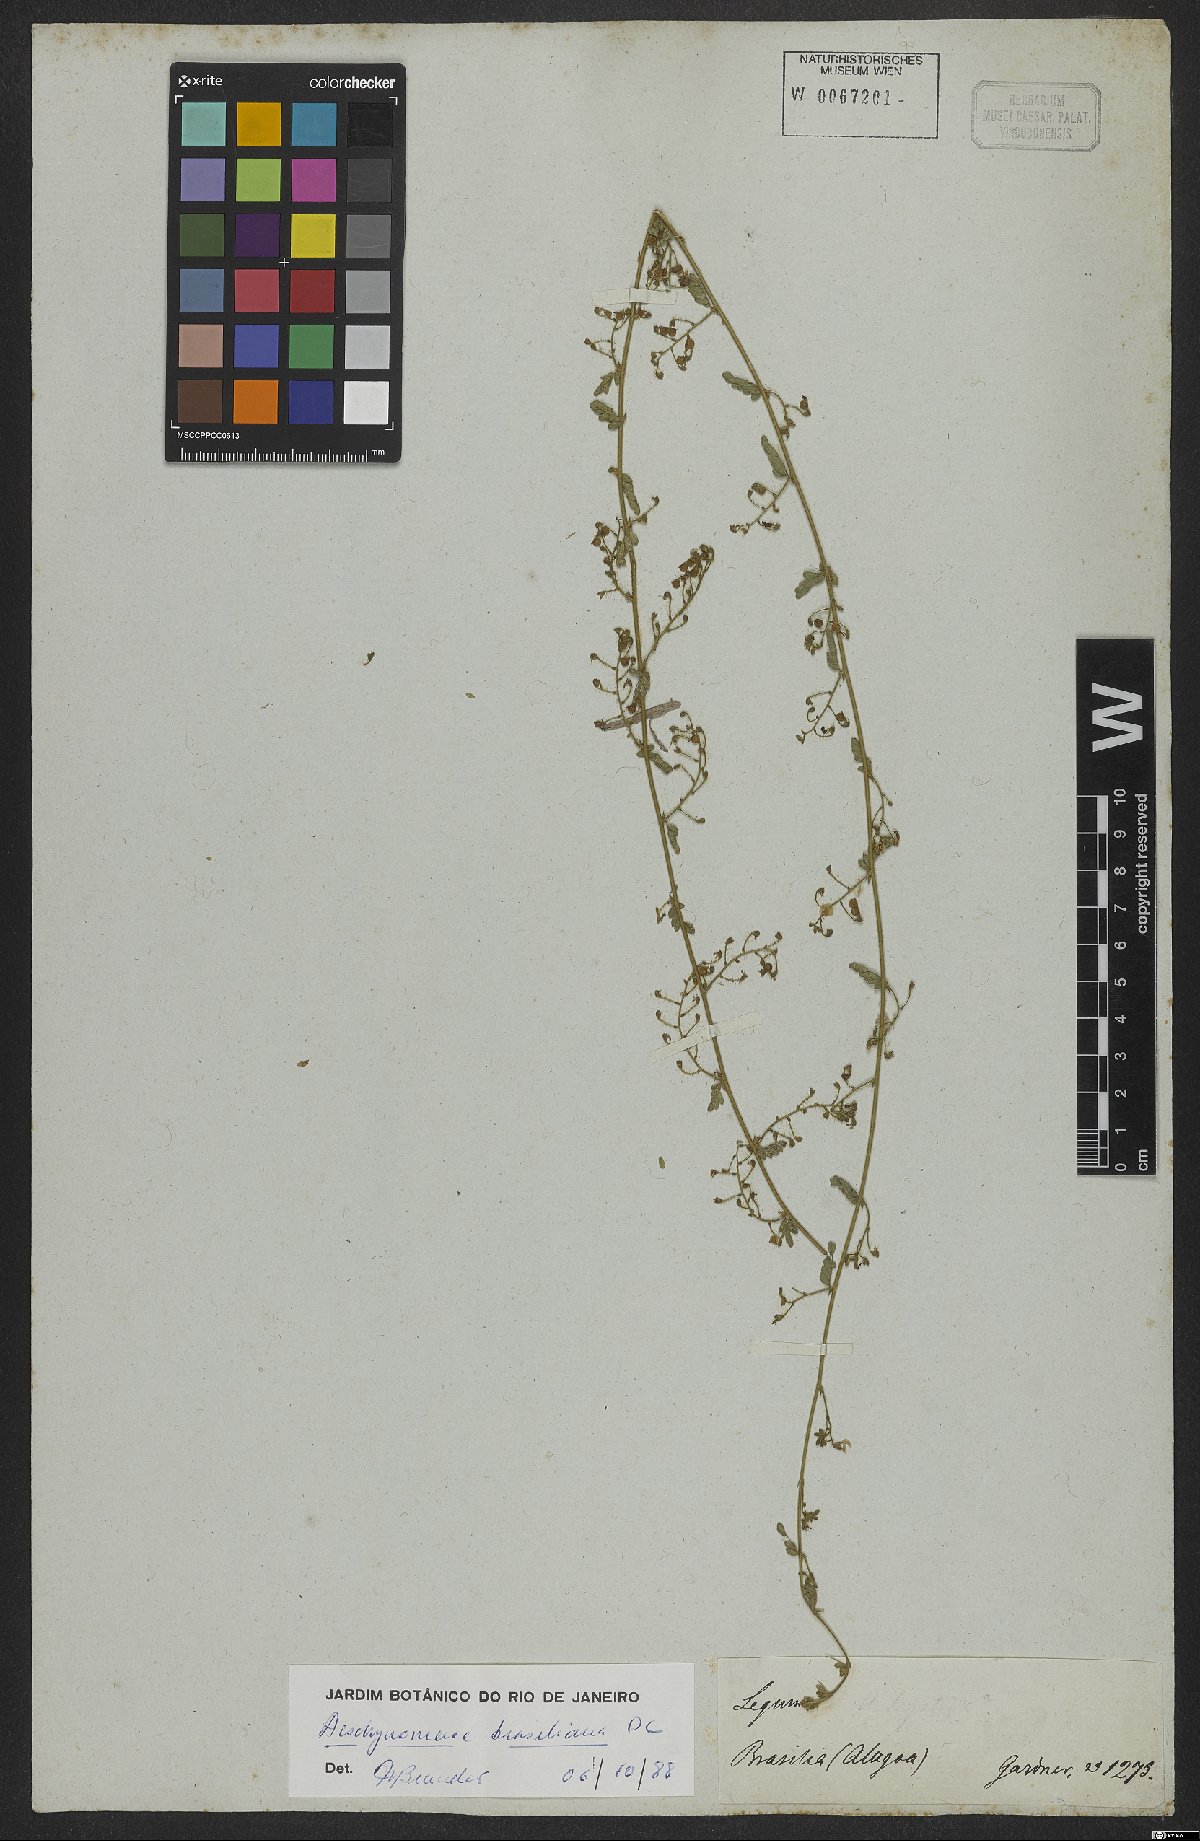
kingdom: Plantae
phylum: Tracheophyta
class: Magnoliopsida
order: Fabales
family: Fabaceae
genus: Ctenodon
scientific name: Ctenodon brasilianus
